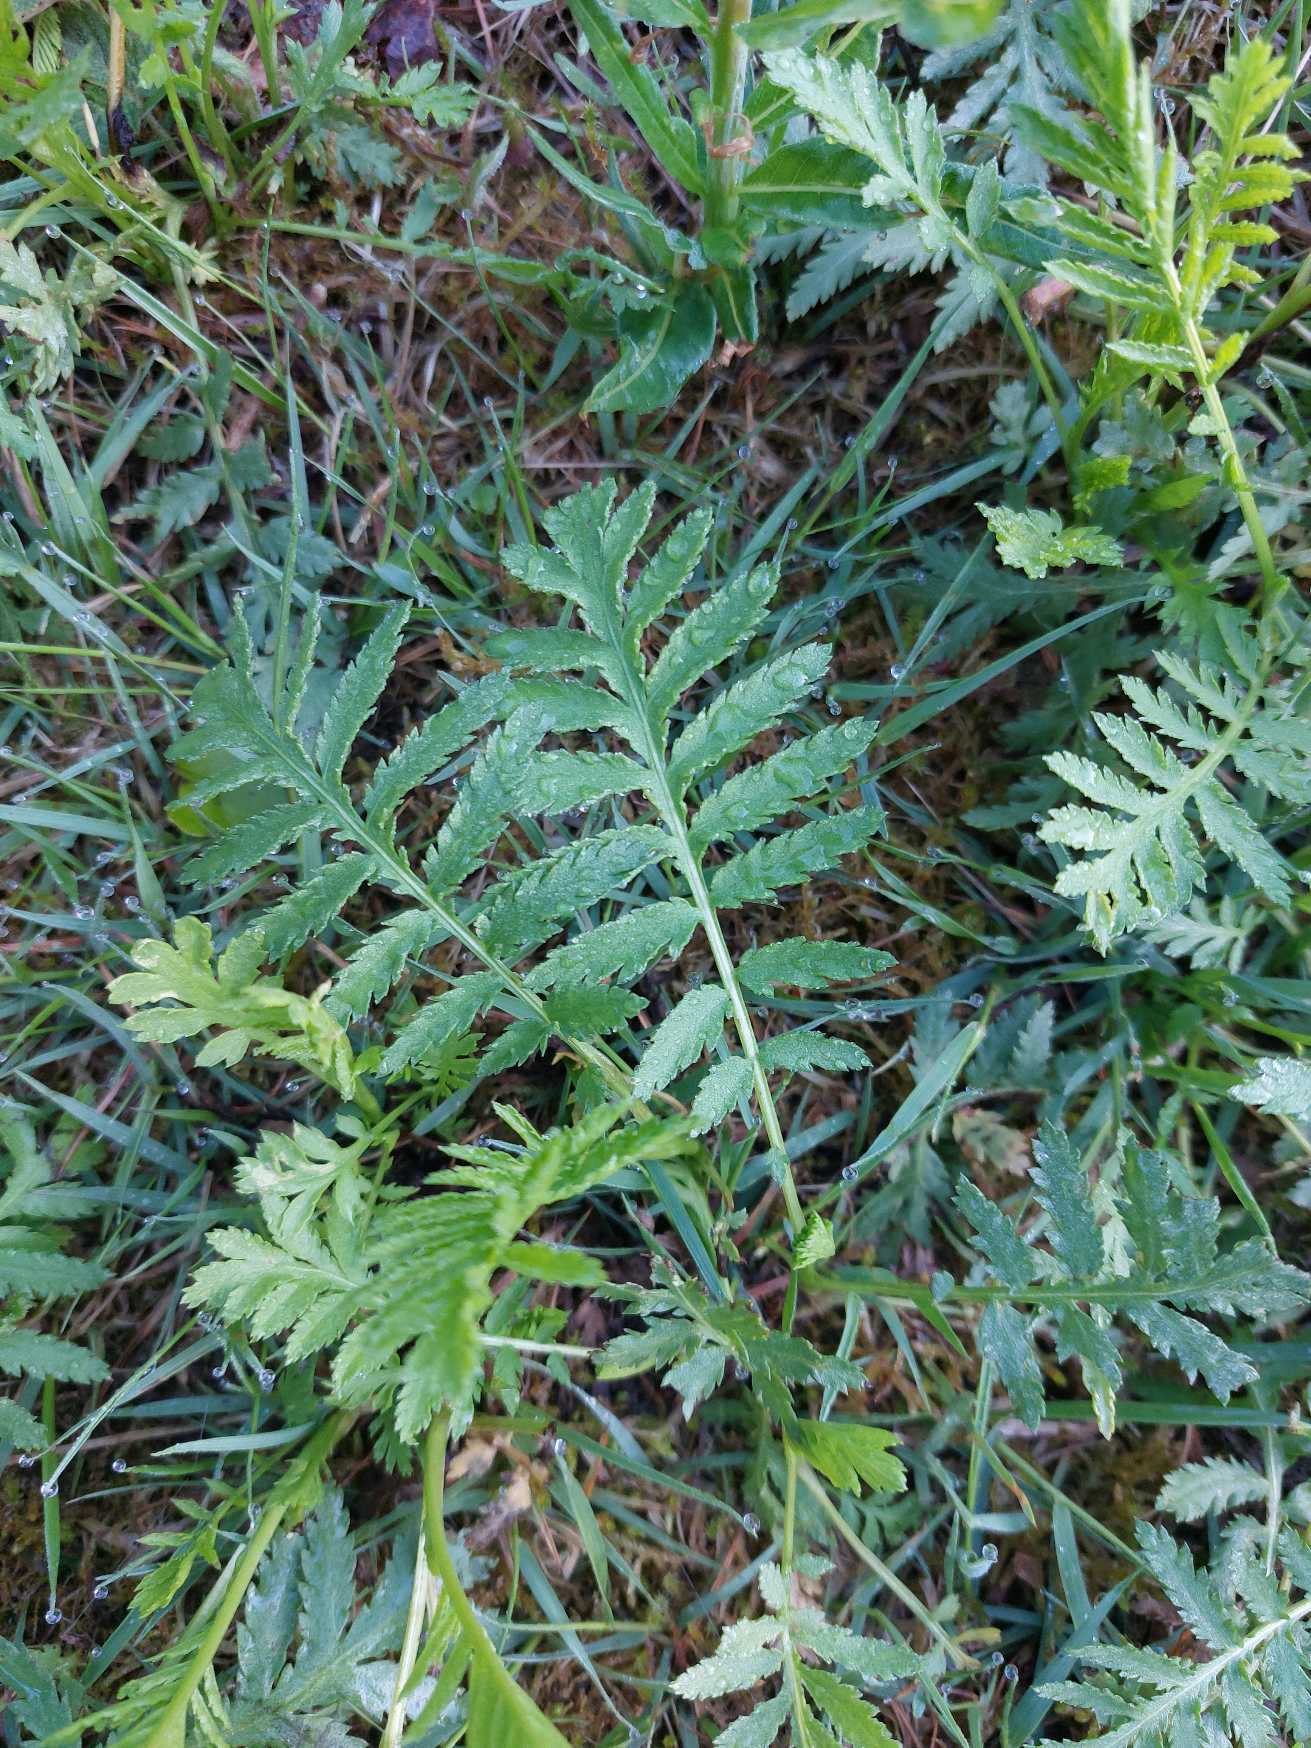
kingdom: Plantae
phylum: Tracheophyta
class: Magnoliopsida
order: Asterales
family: Asteraceae
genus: Tanacetum
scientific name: Tanacetum vulgare
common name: Rejnfan
